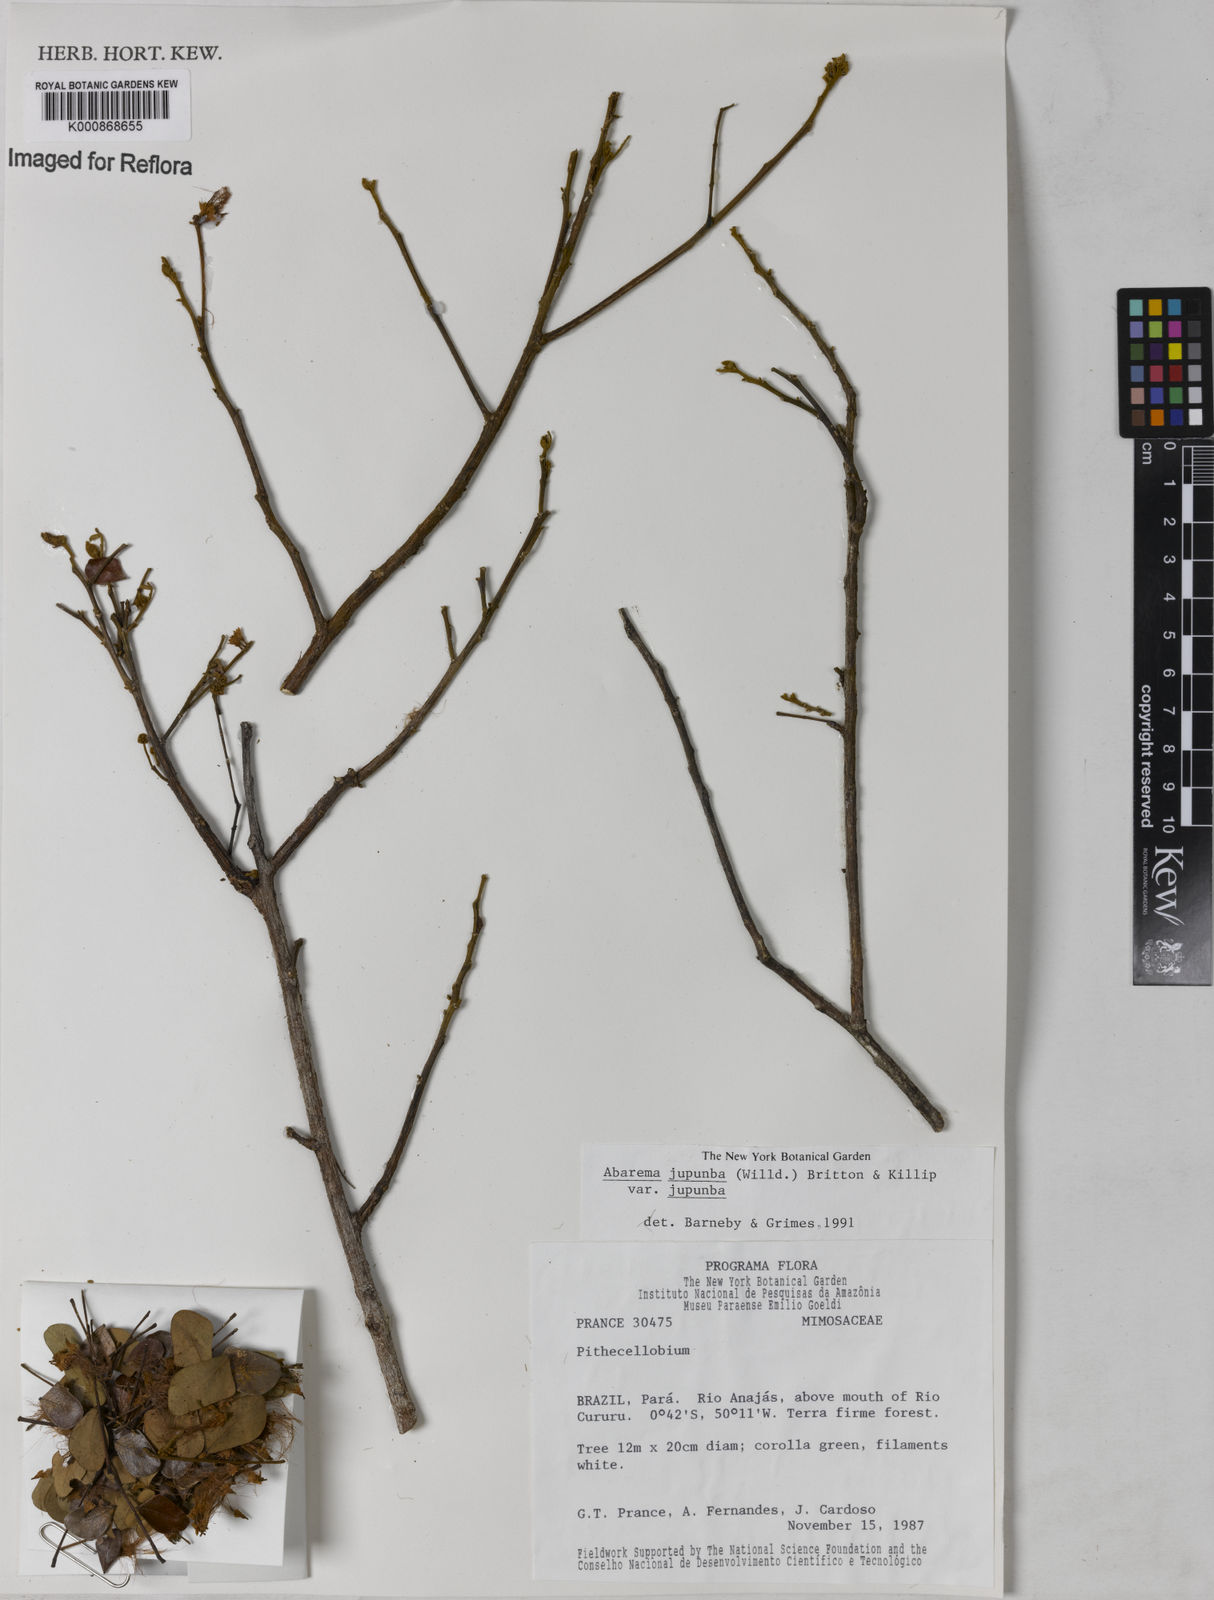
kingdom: Plantae
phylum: Tracheophyta
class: Magnoliopsida
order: Fabales
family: Fabaceae
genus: Jupunba
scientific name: Jupunba trapezifolia
